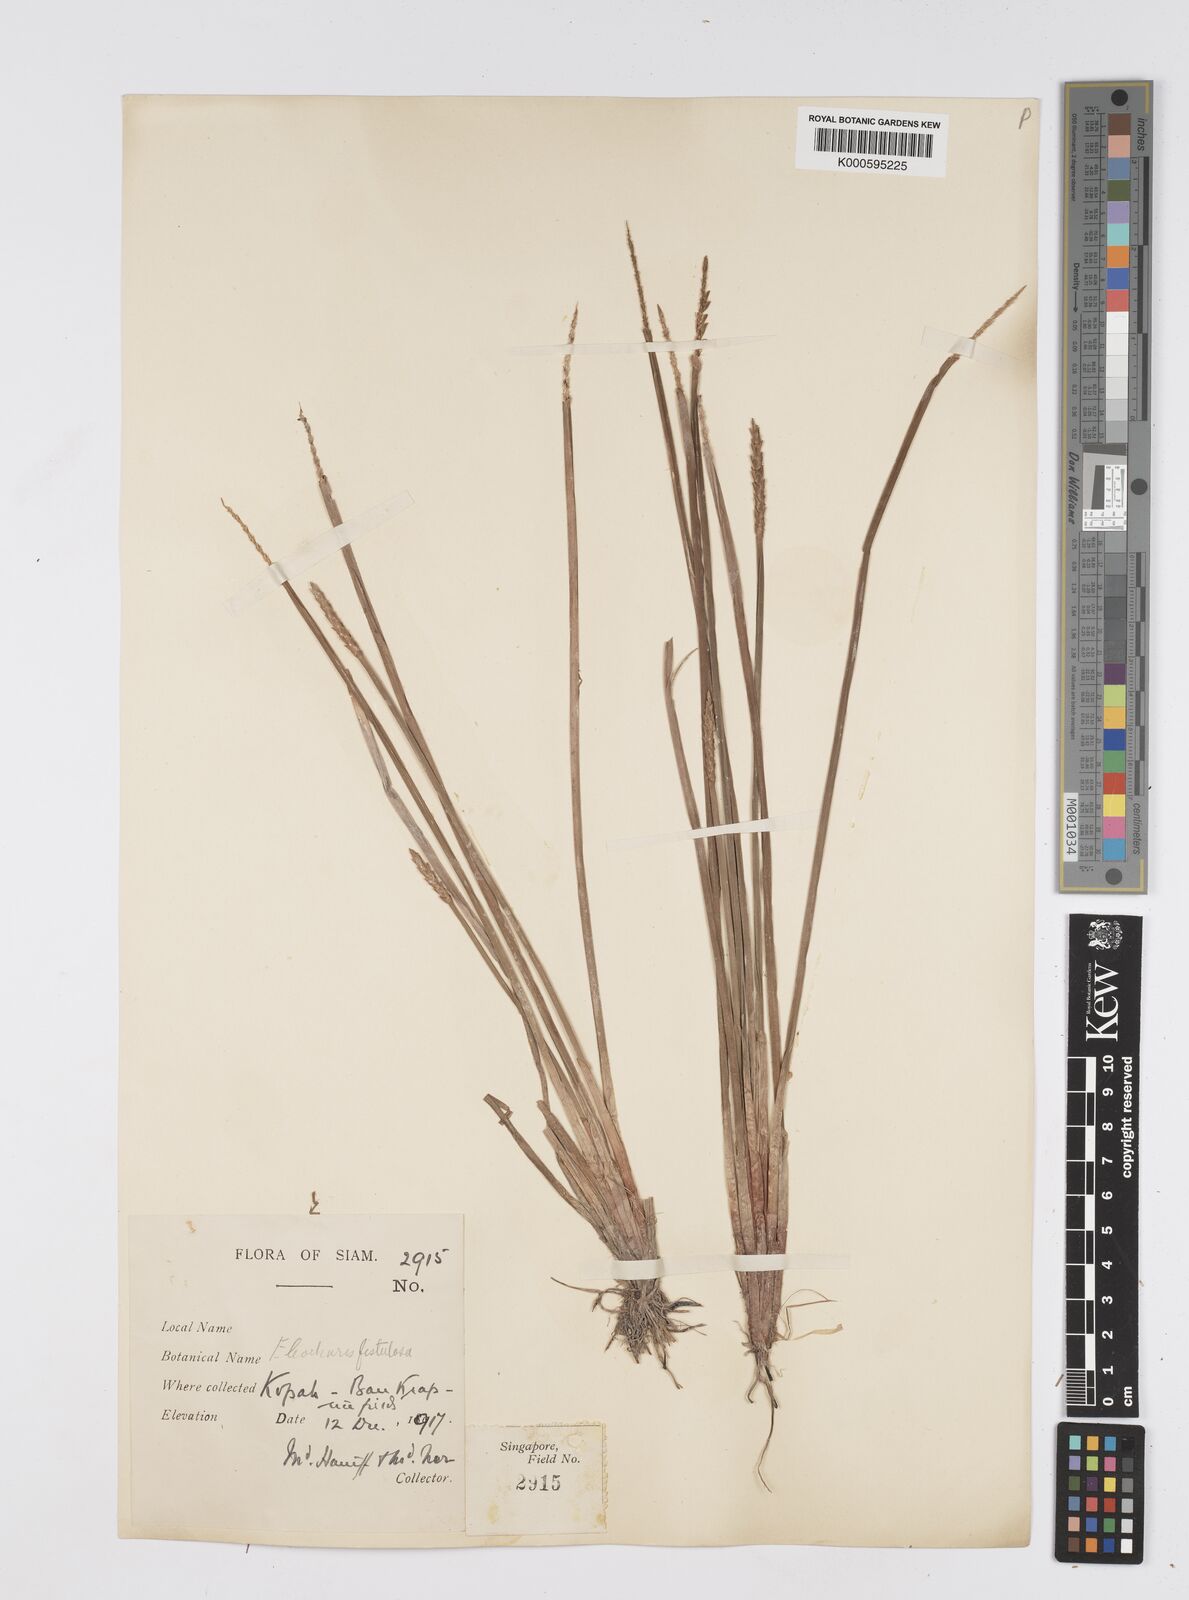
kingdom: Plantae
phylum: Tracheophyta
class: Liliopsida
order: Poales
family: Cyperaceae
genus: Eleocharis
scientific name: Eleocharis acutangula
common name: Acute spikerush
